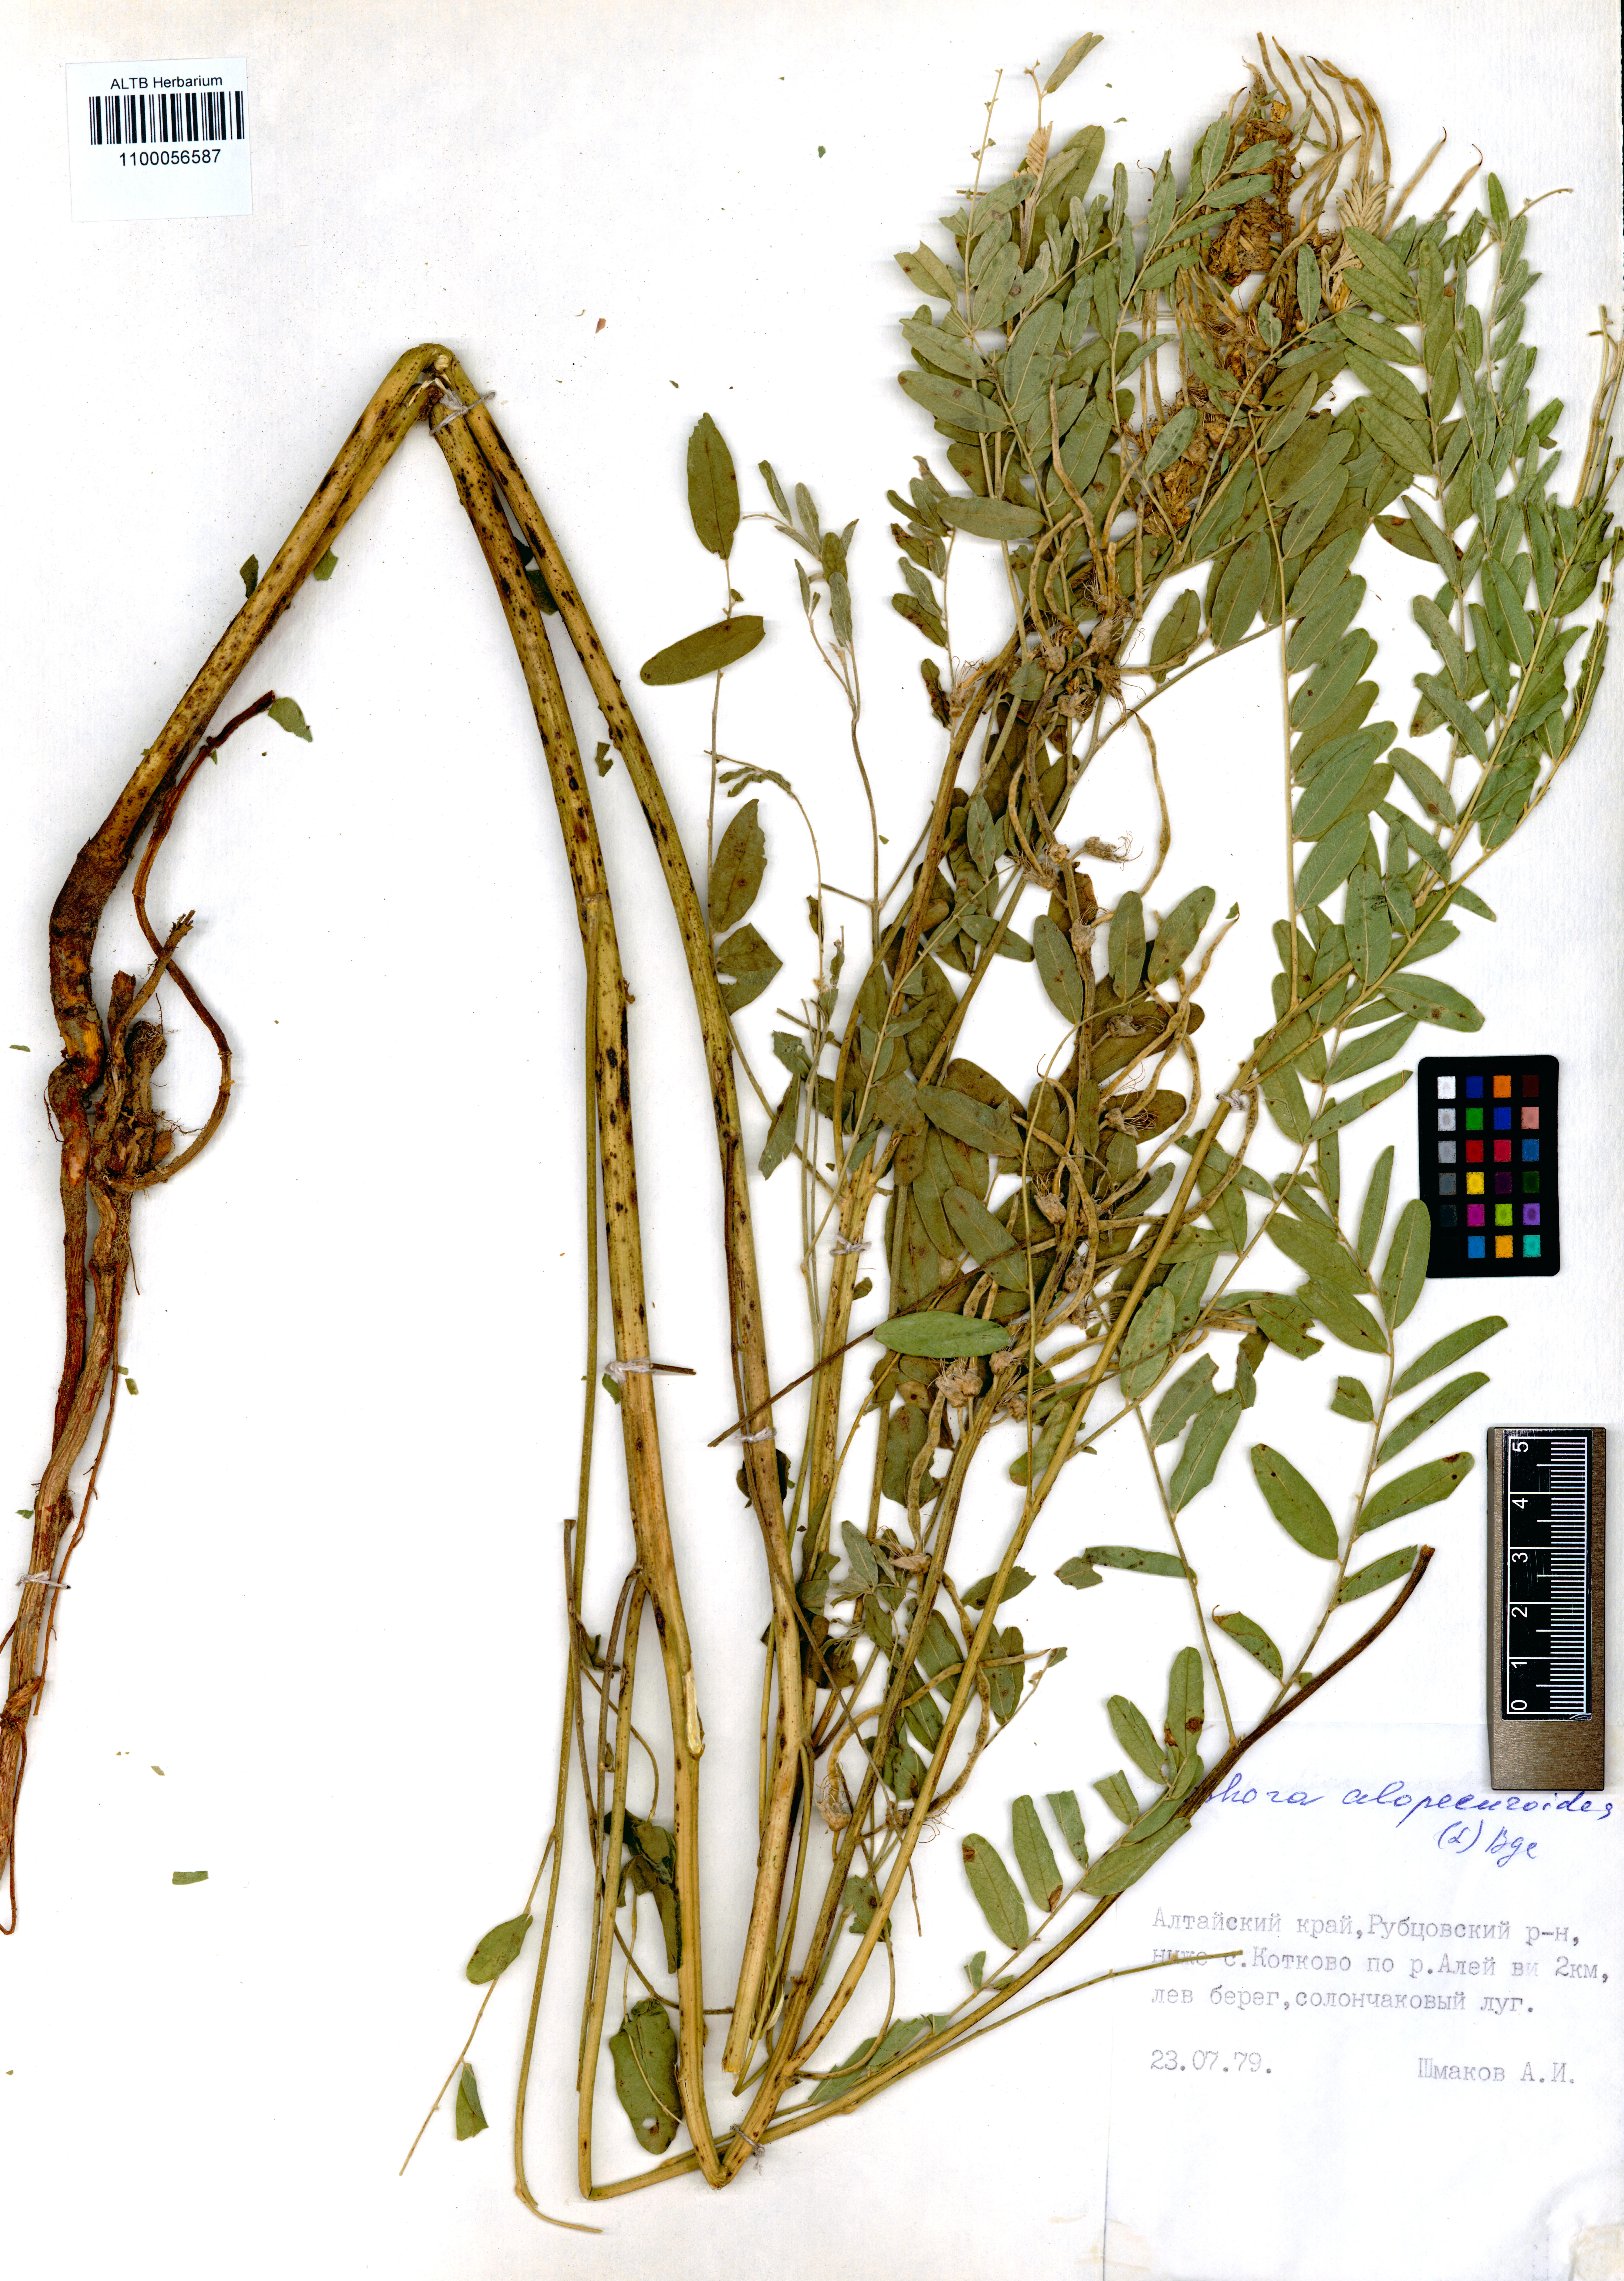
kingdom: Plantae
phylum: Tracheophyta
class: Magnoliopsida
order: Fabales
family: Fabaceae
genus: Sophora
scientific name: Sophora alopecuroides
